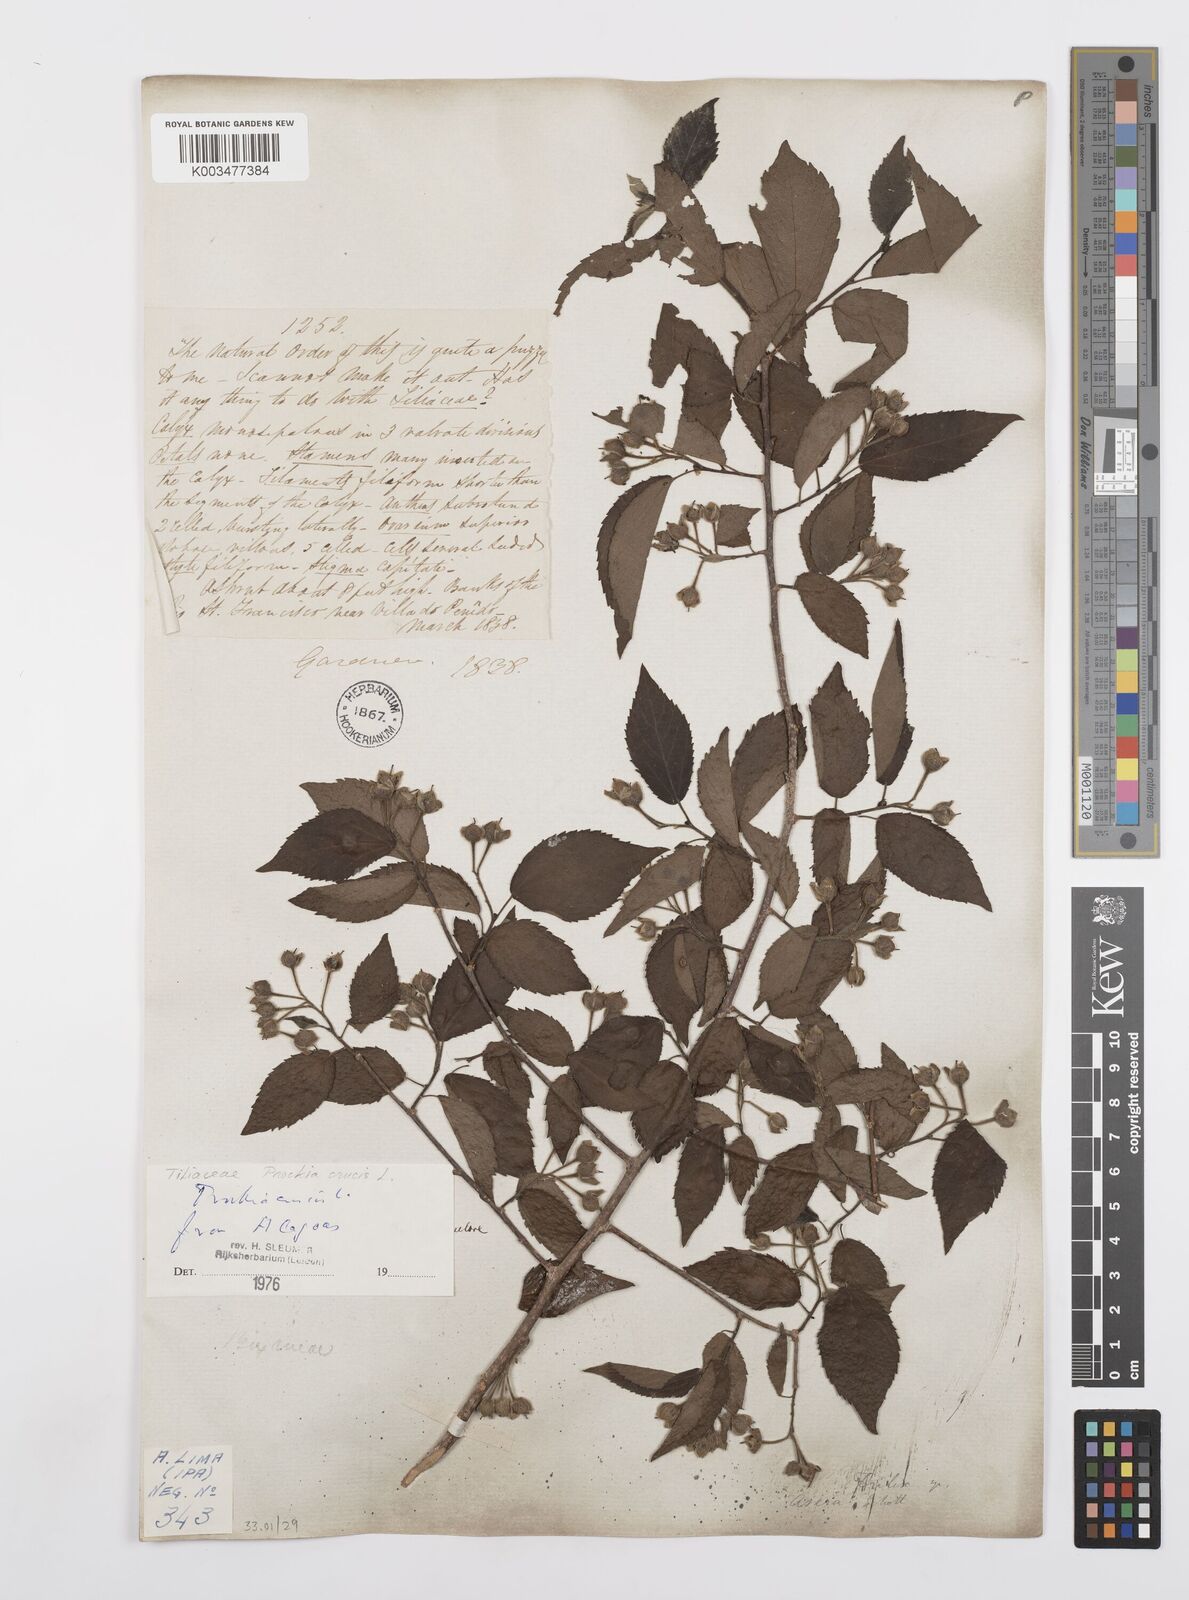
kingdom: Plantae
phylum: Tracheophyta
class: Magnoliopsida
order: Malpighiales
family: Salicaceae
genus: Prockia
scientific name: Prockia crucis
